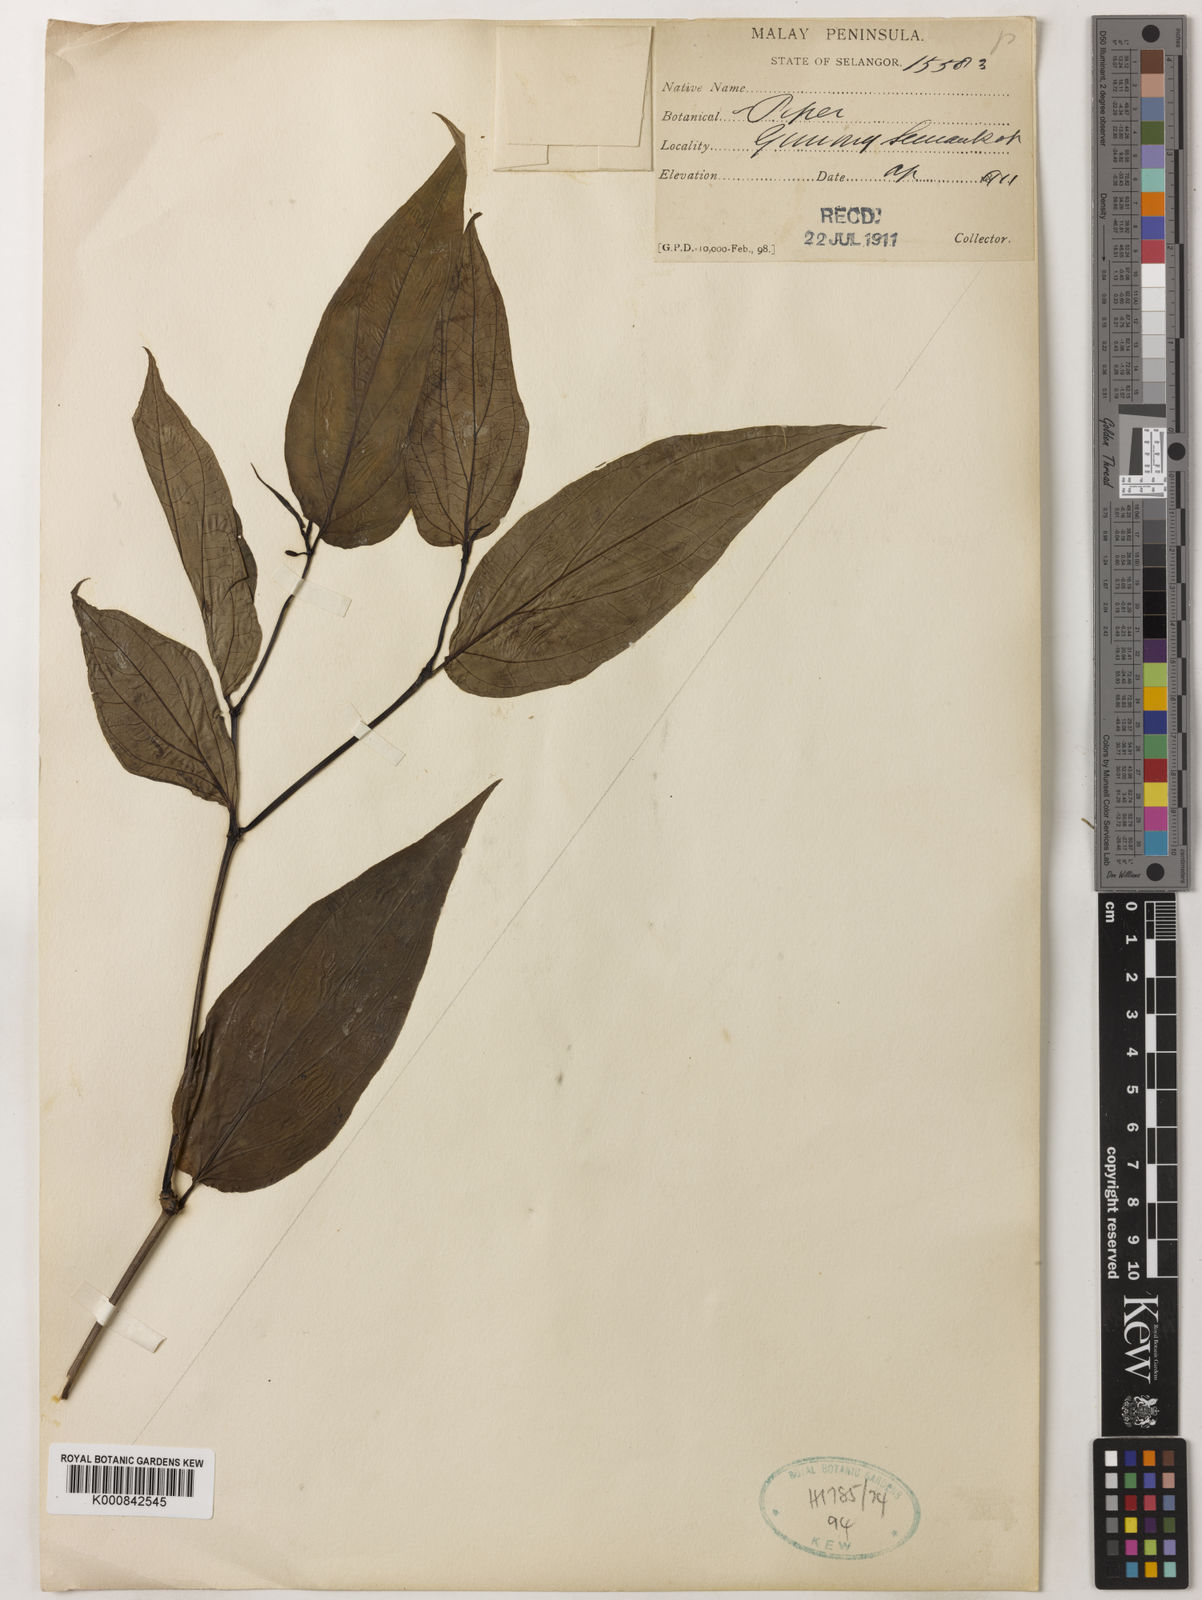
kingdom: Plantae
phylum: Tracheophyta
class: Magnoliopsida
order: Piperales
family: Piperaceae
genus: Piper
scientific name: Piper
